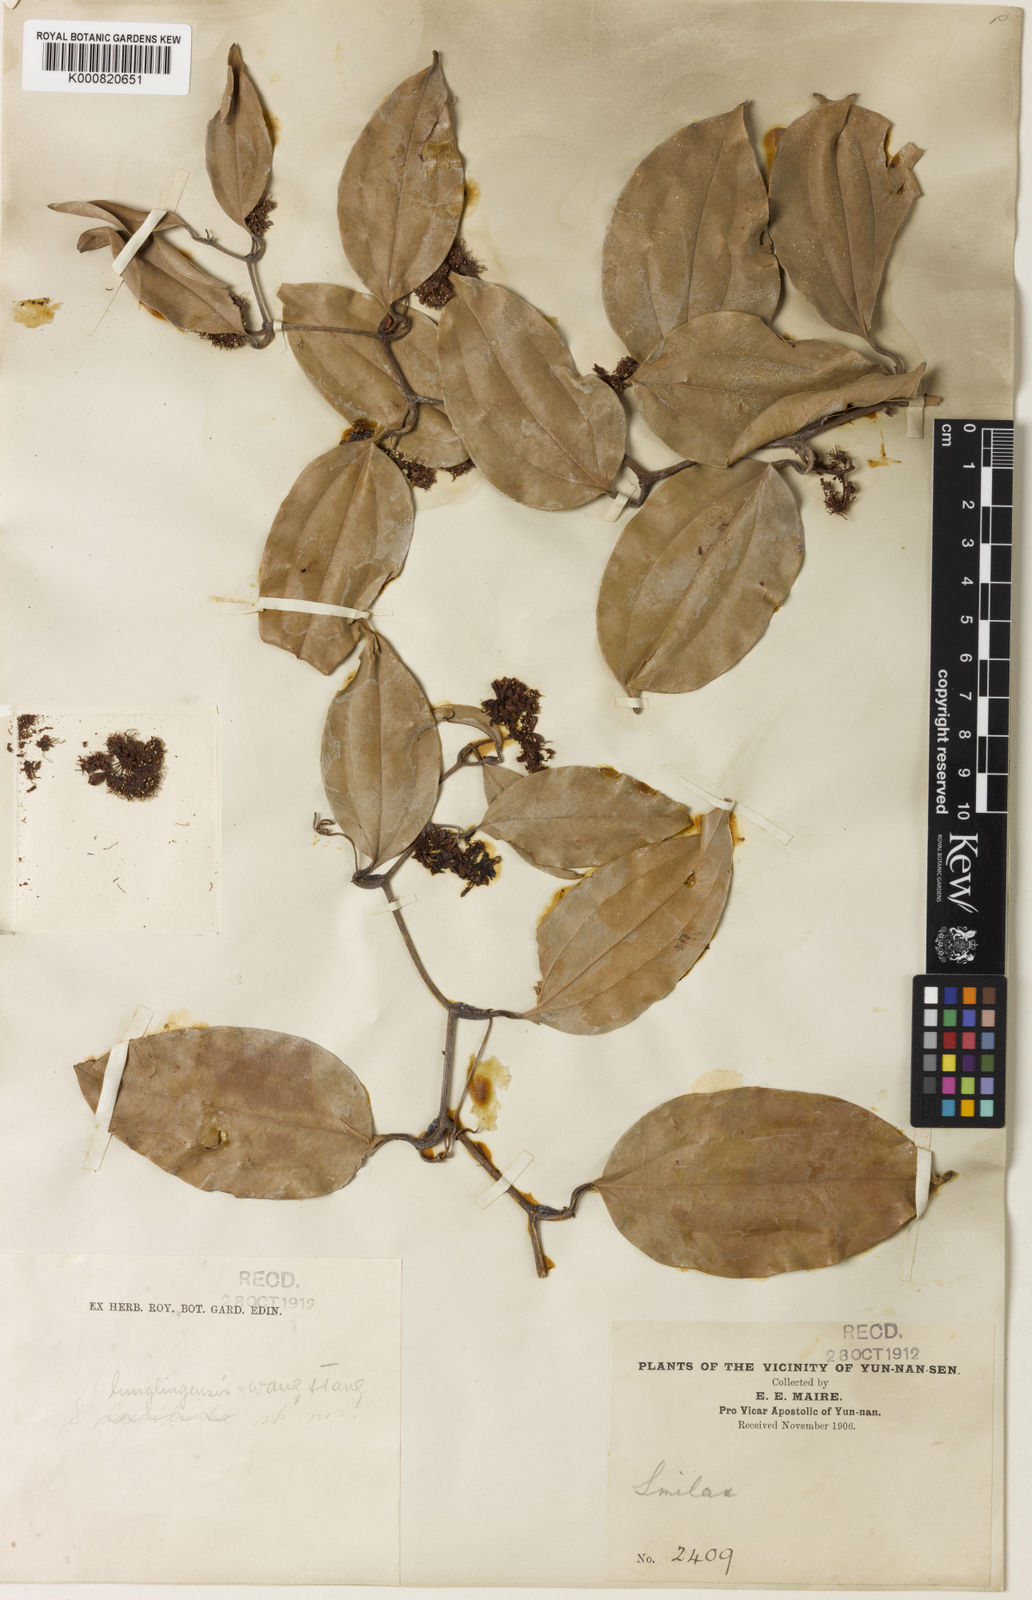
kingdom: Plantae
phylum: Tracheophyta
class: Liliopsida
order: Liliales
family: Smilacaceae
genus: Smilax
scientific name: Smilax lunglingensis
